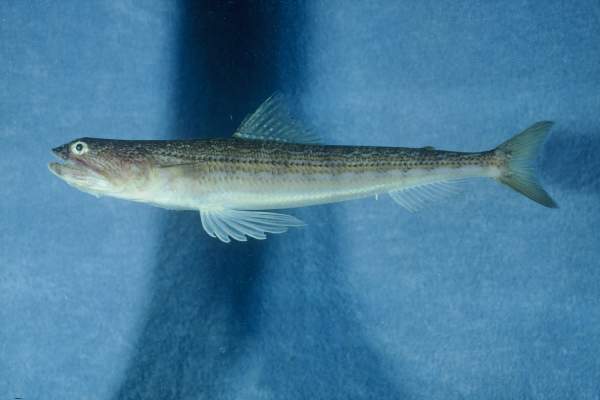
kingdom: Animalia
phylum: Chordata
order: Aulopiformes
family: Synodontidae
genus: Synodus
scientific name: Synodus saurus
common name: Atlantic lizardfish
